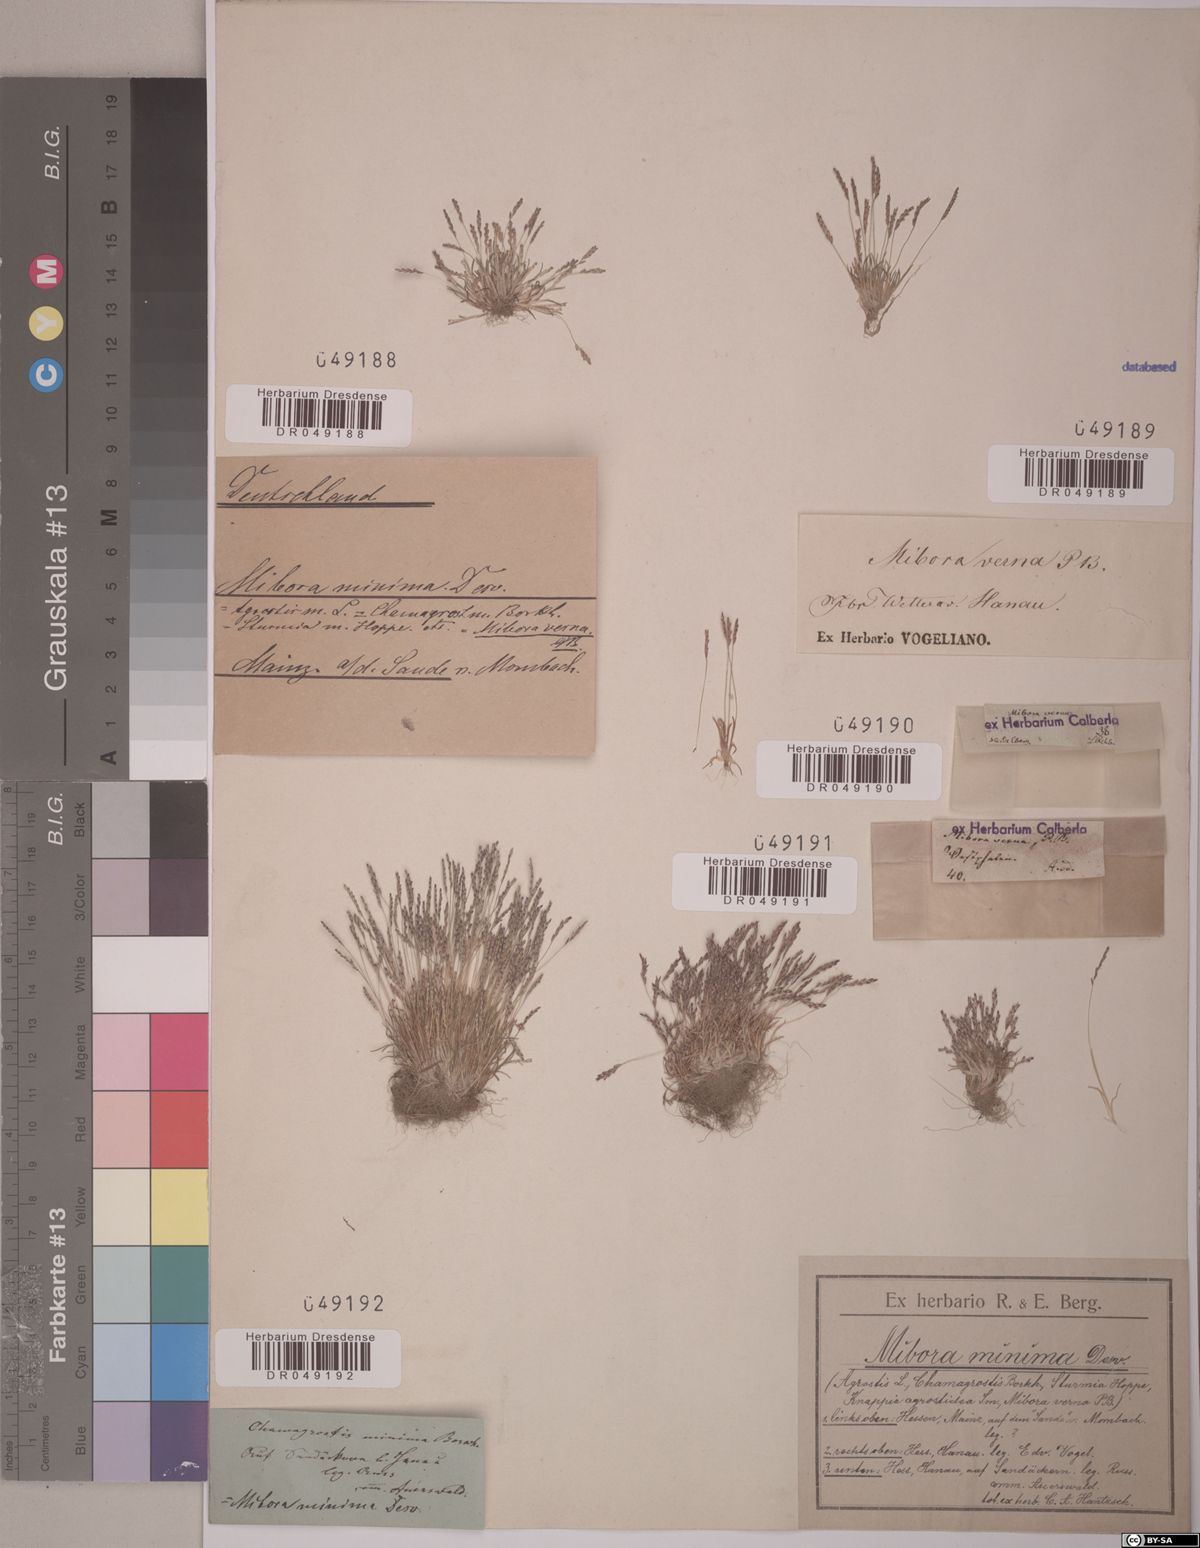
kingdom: Plantae
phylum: Tracheophyta
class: Liliopsida
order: Poales
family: Poaceae
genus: Mibora
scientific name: Mibora minima
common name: Early sand-grass
